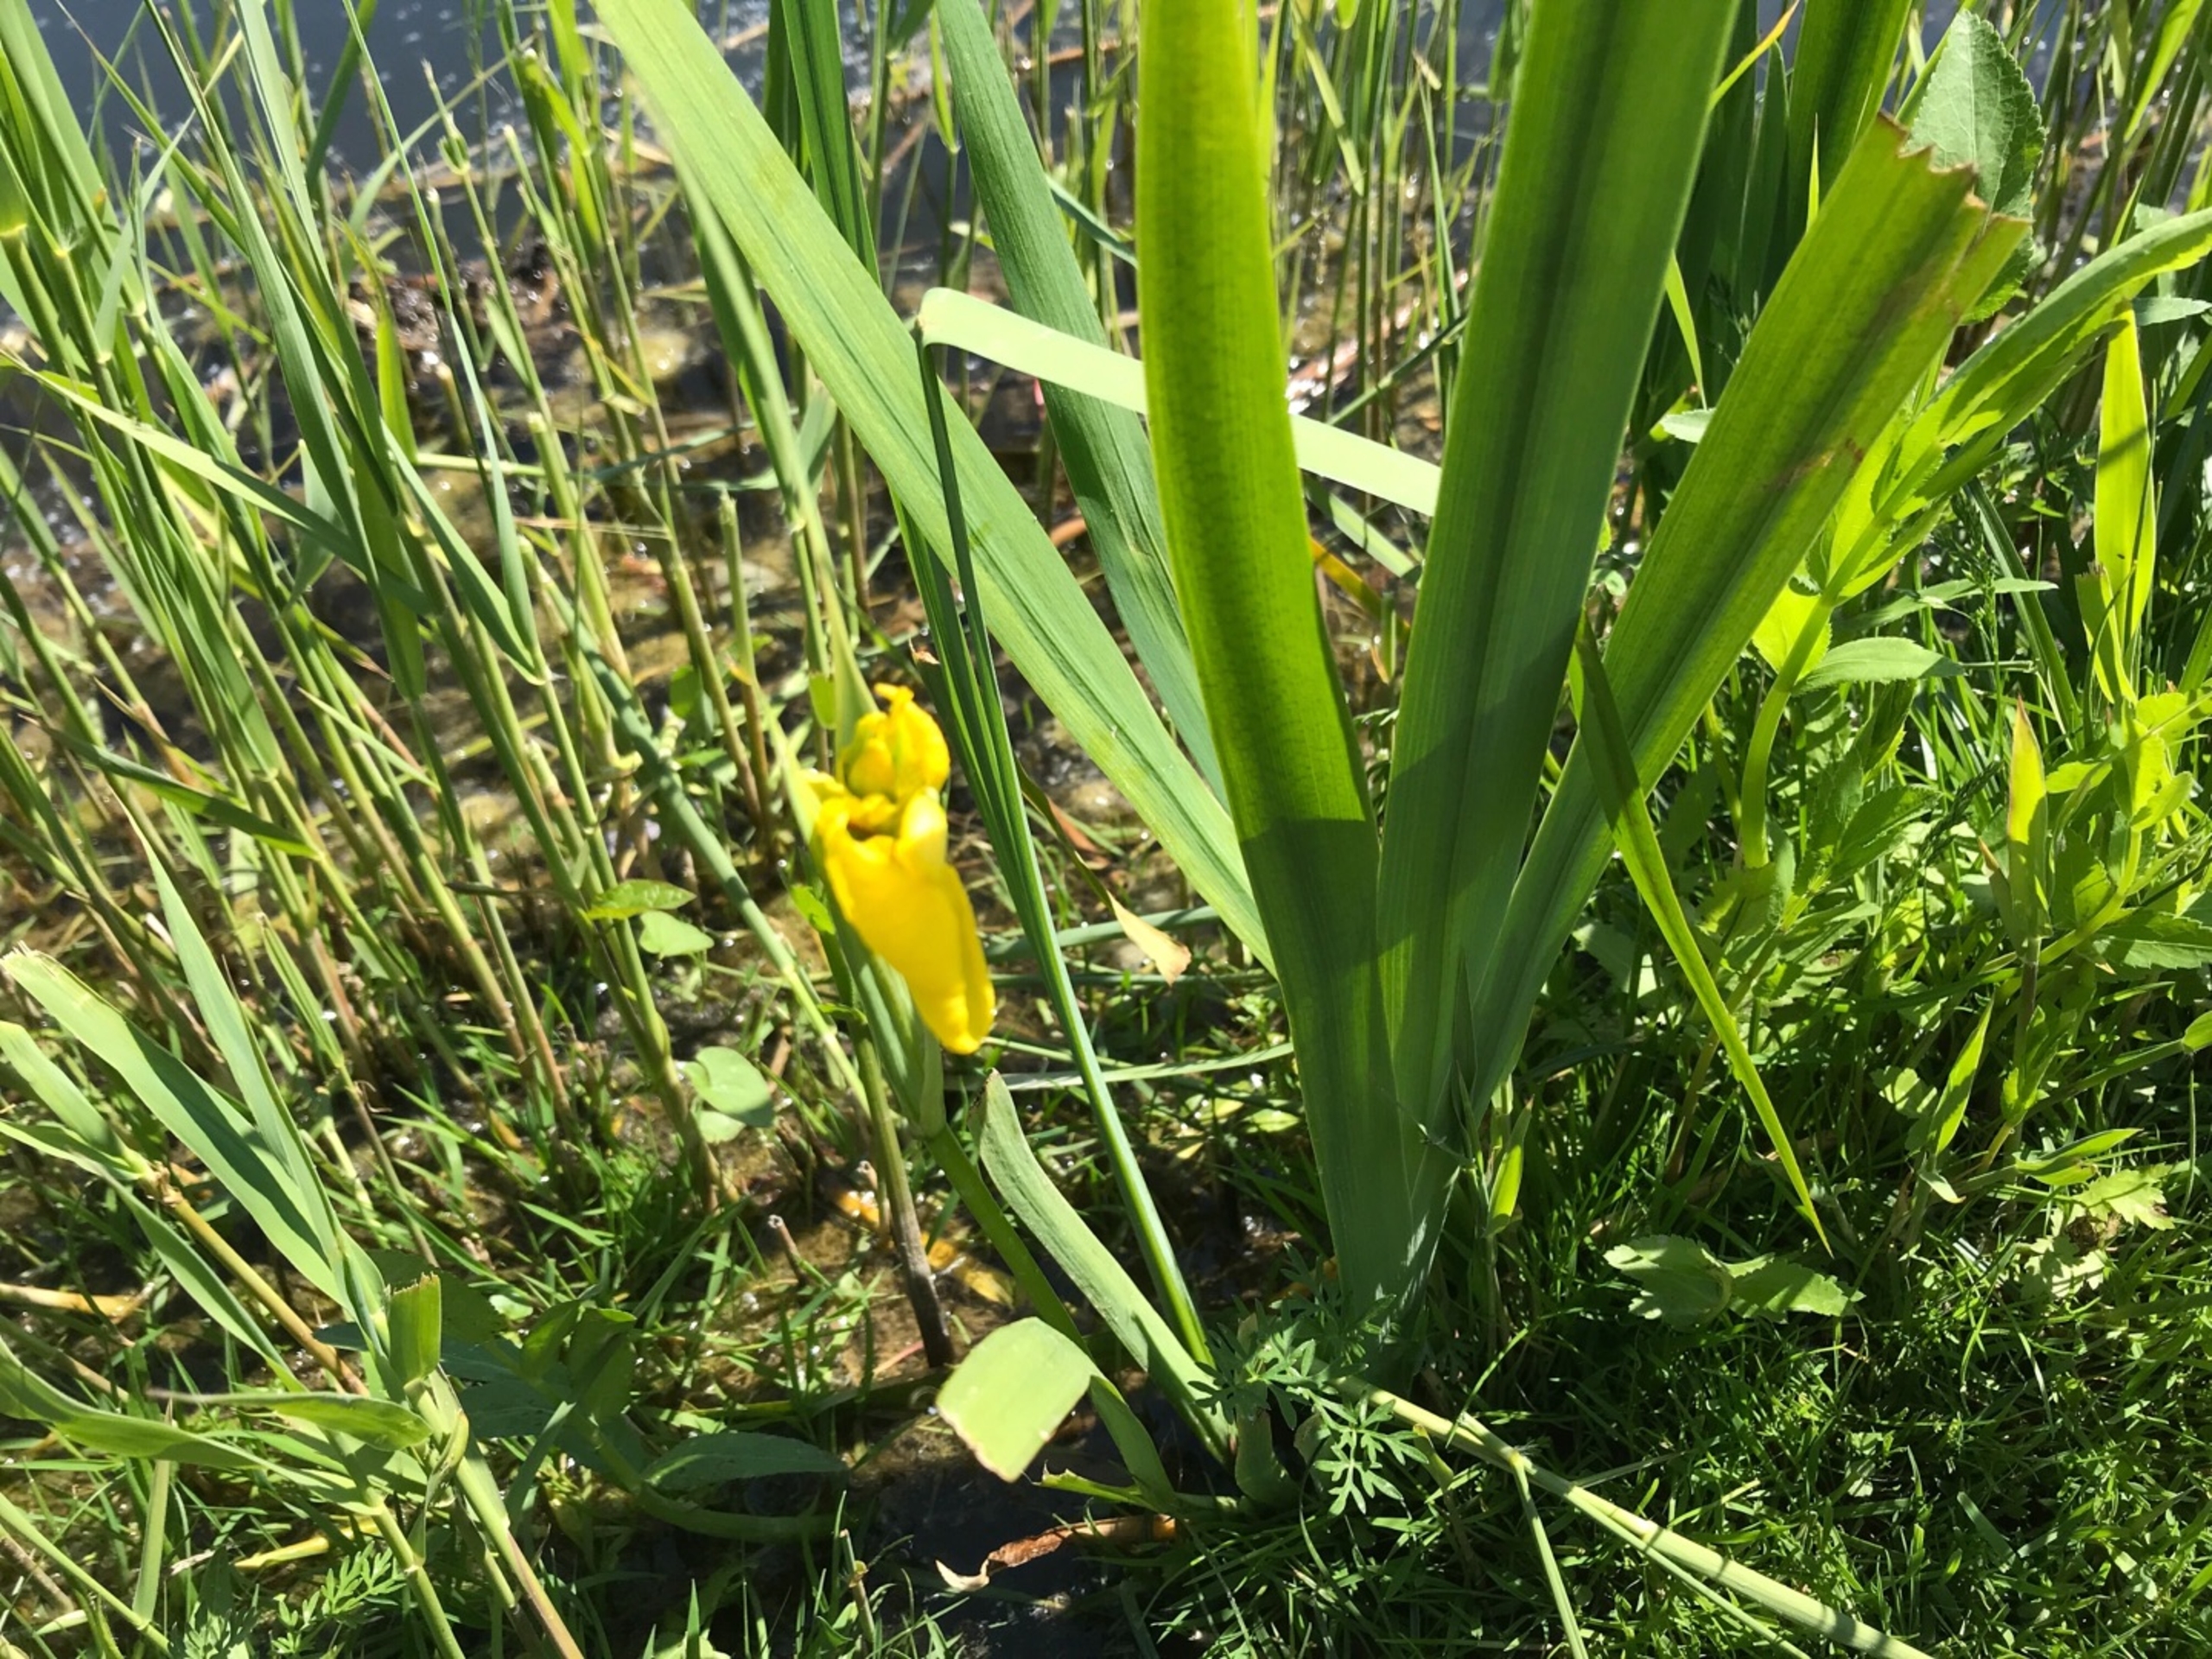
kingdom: Plantae
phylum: Tracheophyta
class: Liliopsida
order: Asparagales
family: Iridaceae
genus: Iris
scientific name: Iris pseudacorus
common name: Gul iris
